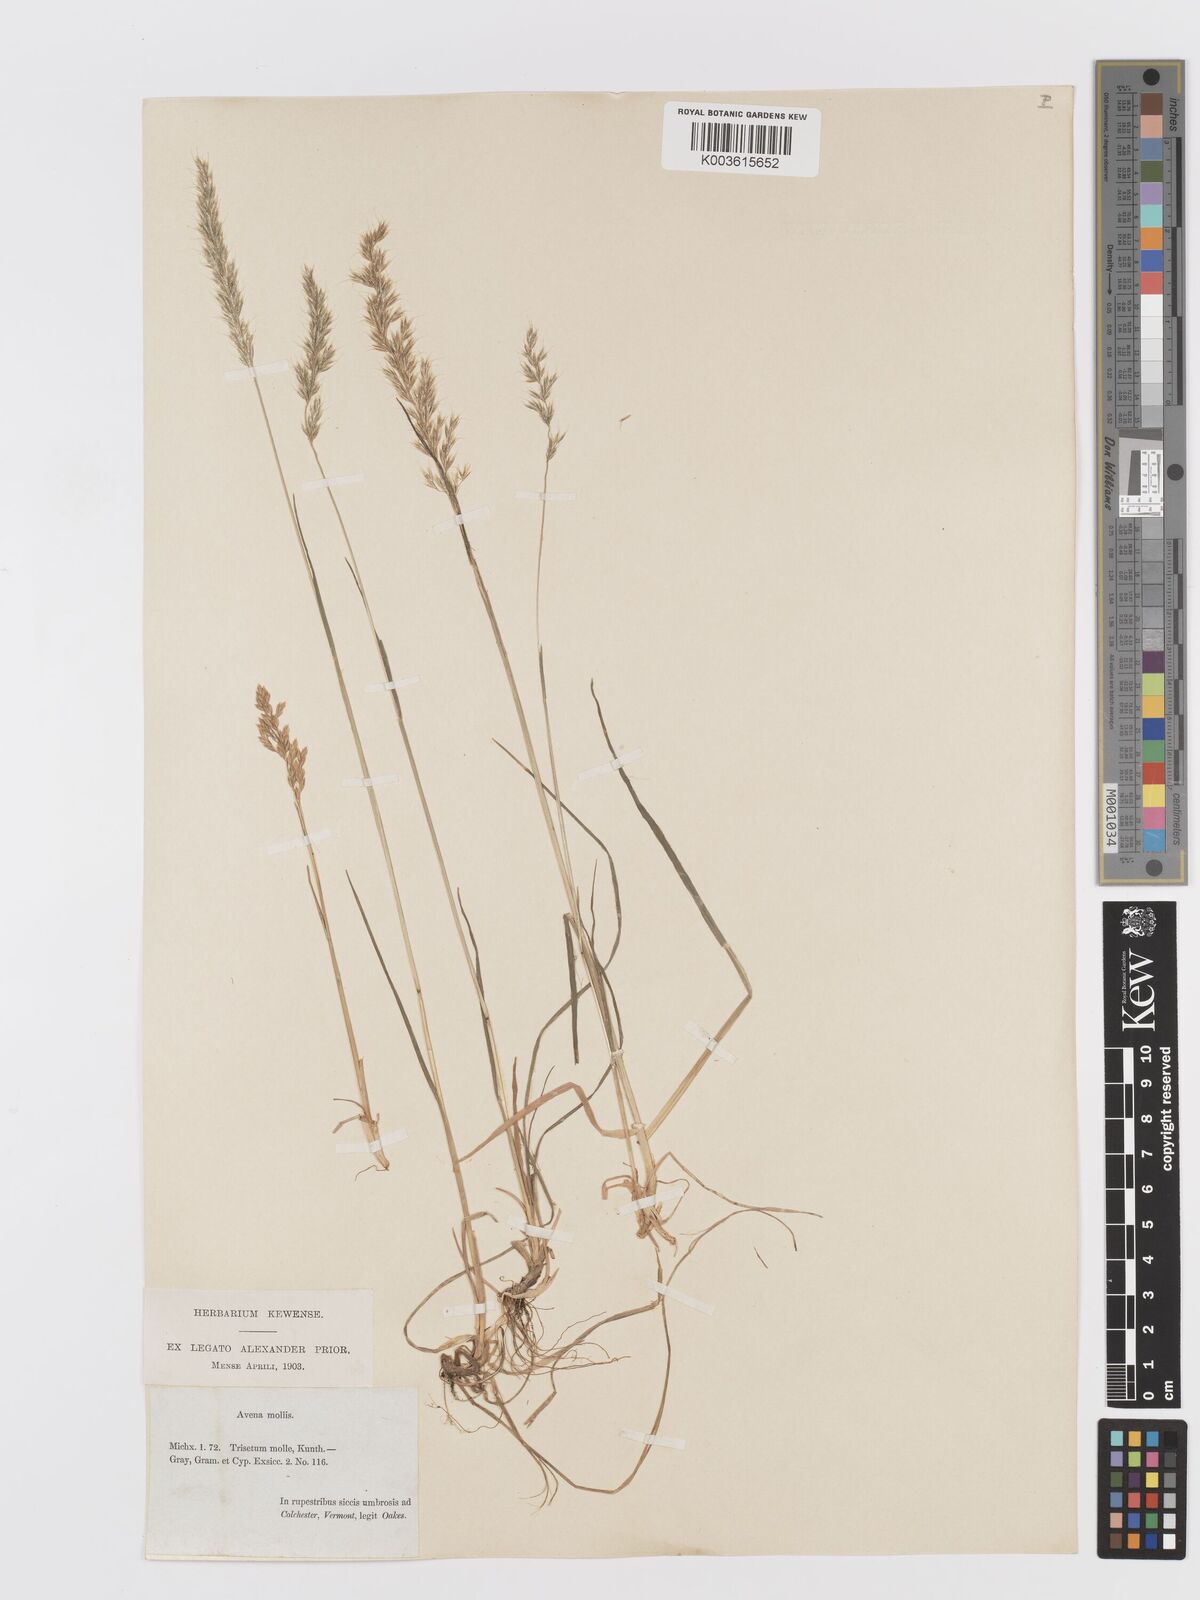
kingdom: Plantae
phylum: Tracheophyta
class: Liliopsida
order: Poales
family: Poaceae
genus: Koeleria
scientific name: Koeleria spicata
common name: Mountain trisetum
